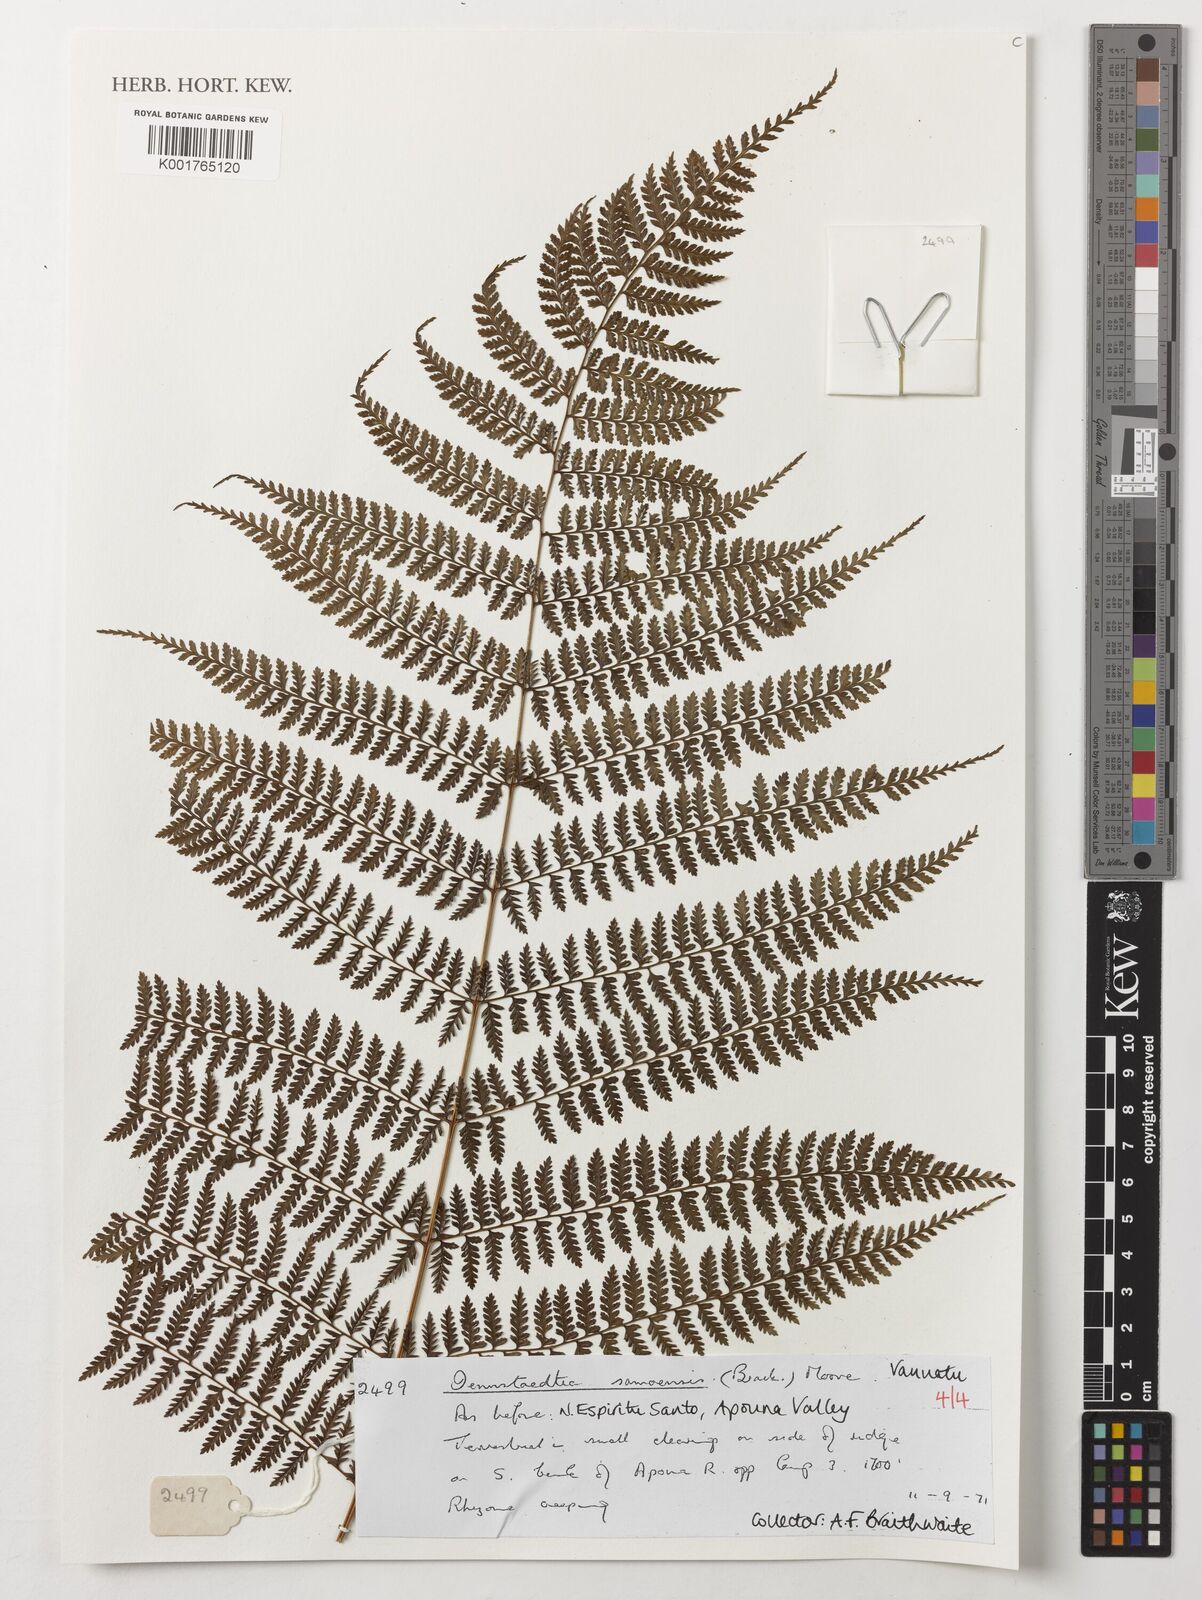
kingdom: Plantae
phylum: Tracheophyta
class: Polypodiopsida
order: Polypodiales
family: Dennstaedtiaceae
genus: Dennstaedtia
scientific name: Dennstaedtia samoensis
